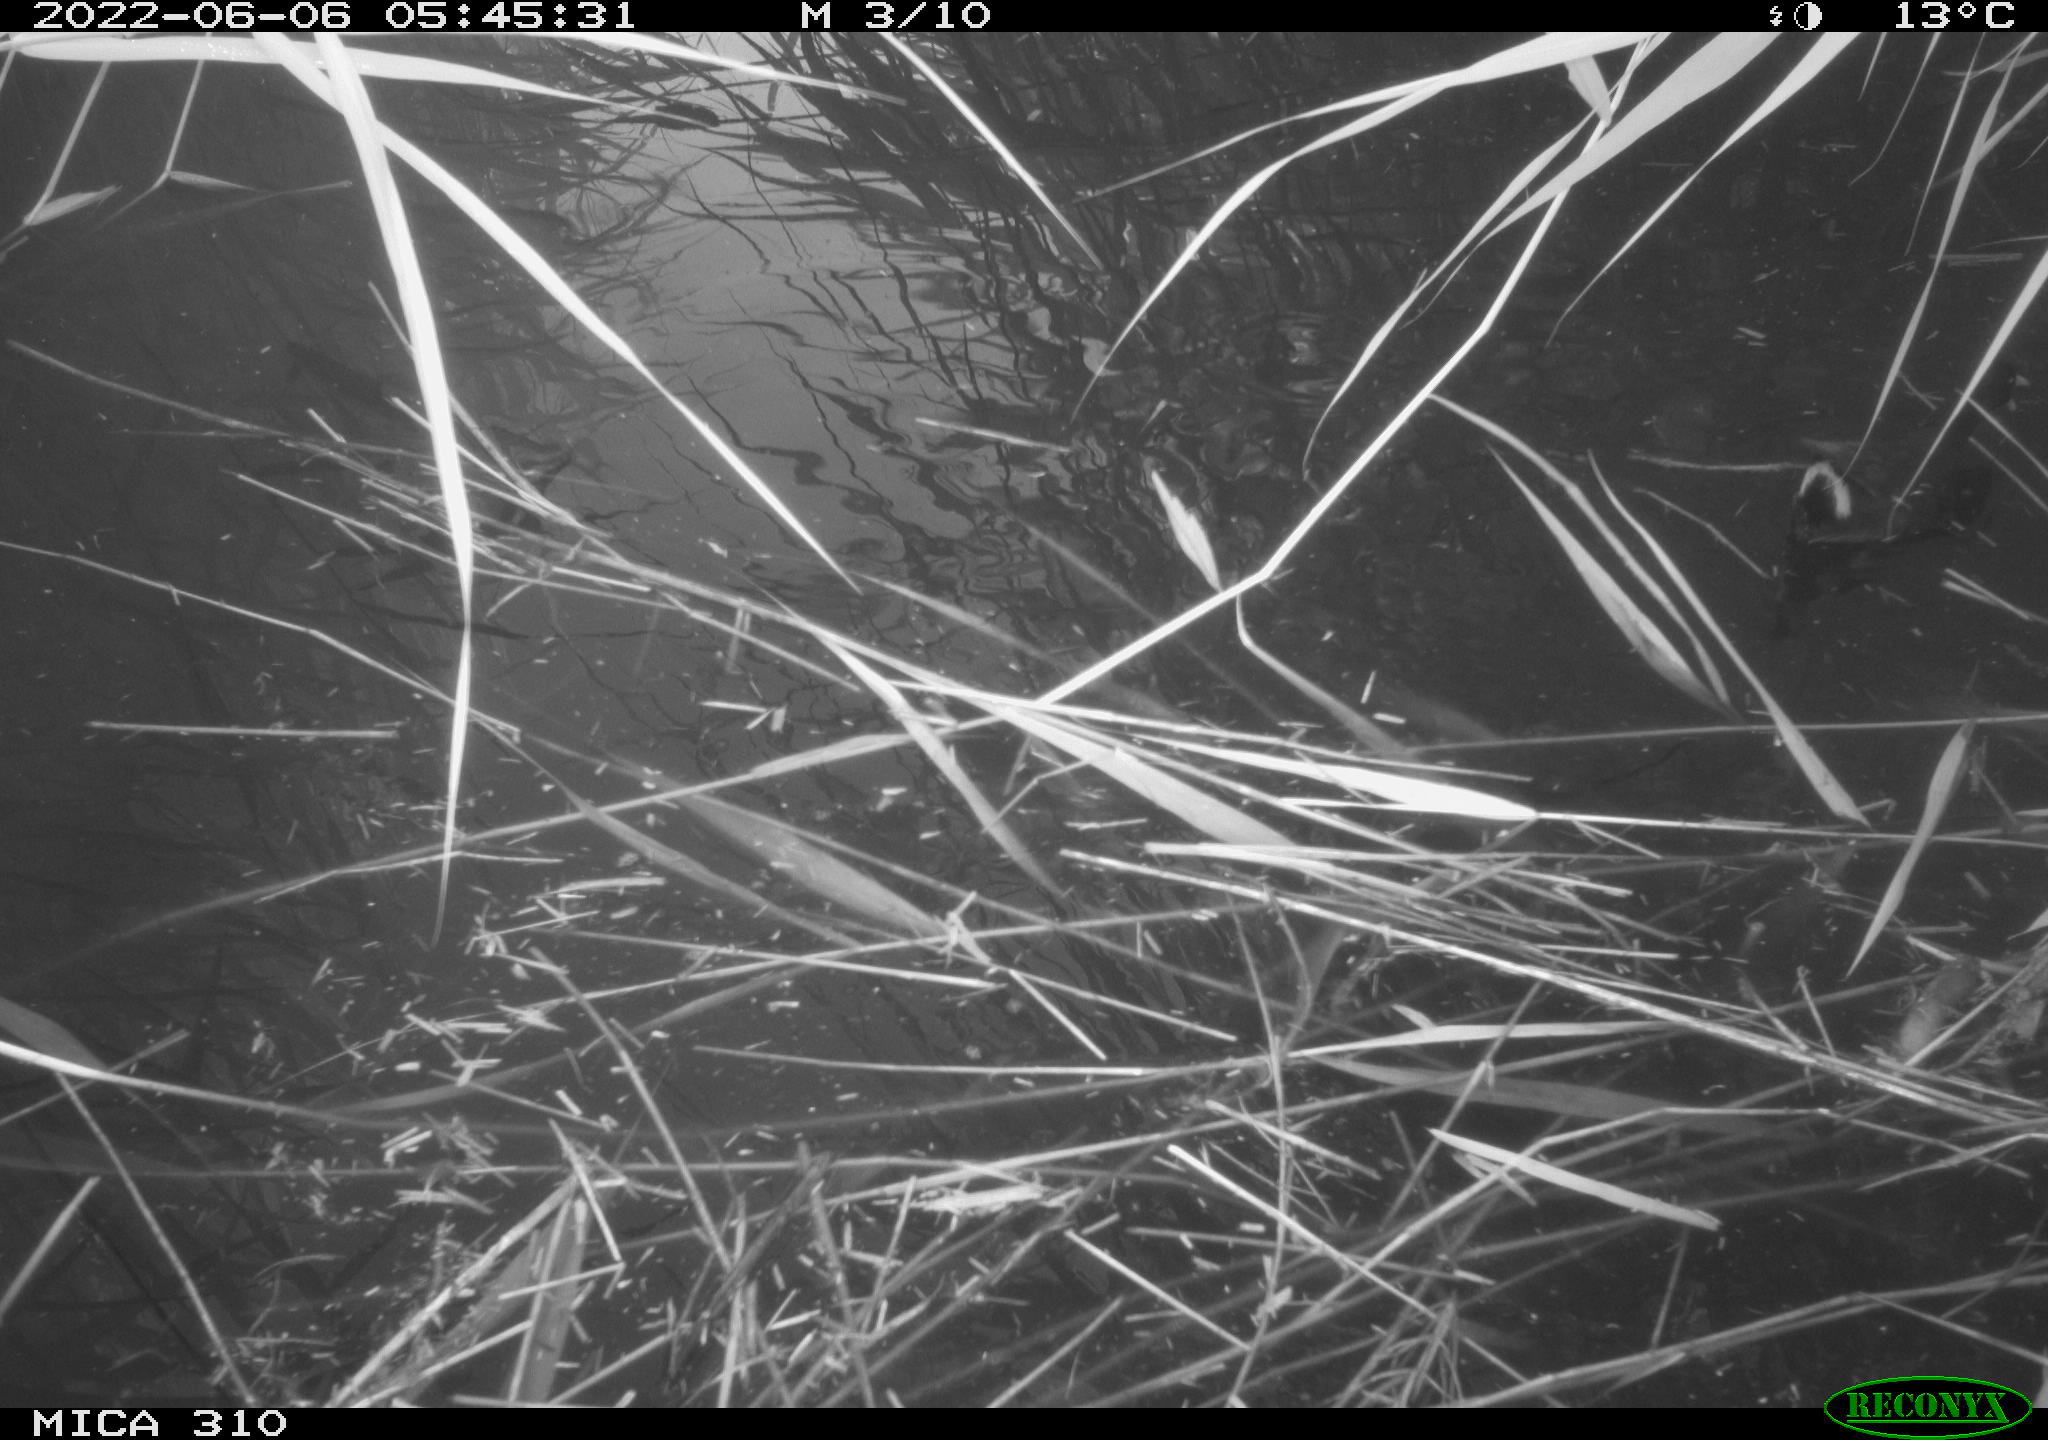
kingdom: Animalia
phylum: Chordata
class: Aves
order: Gruiformes
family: Rallidae
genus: Gallinula
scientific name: Gallinula chloropus
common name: Common moorhen
